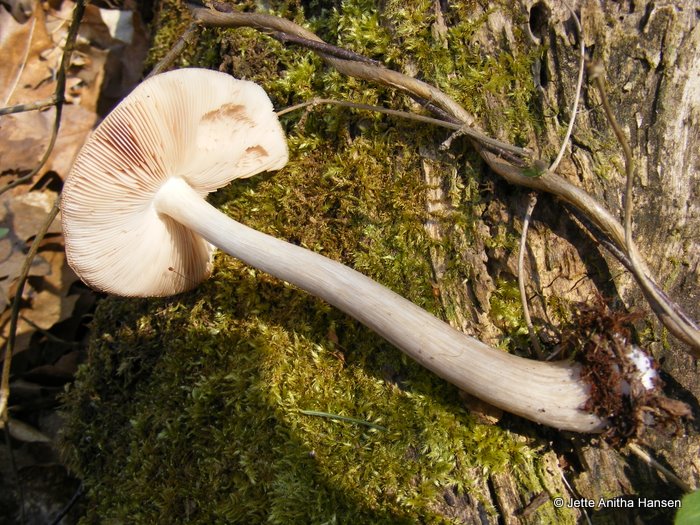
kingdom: Fungi
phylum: Basidiomycota
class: Agaricomycetes
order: Agaricales
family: Pluteaceae
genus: Pluteus
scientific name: Pluteus cervinus
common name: sodfarvet skærmhat
